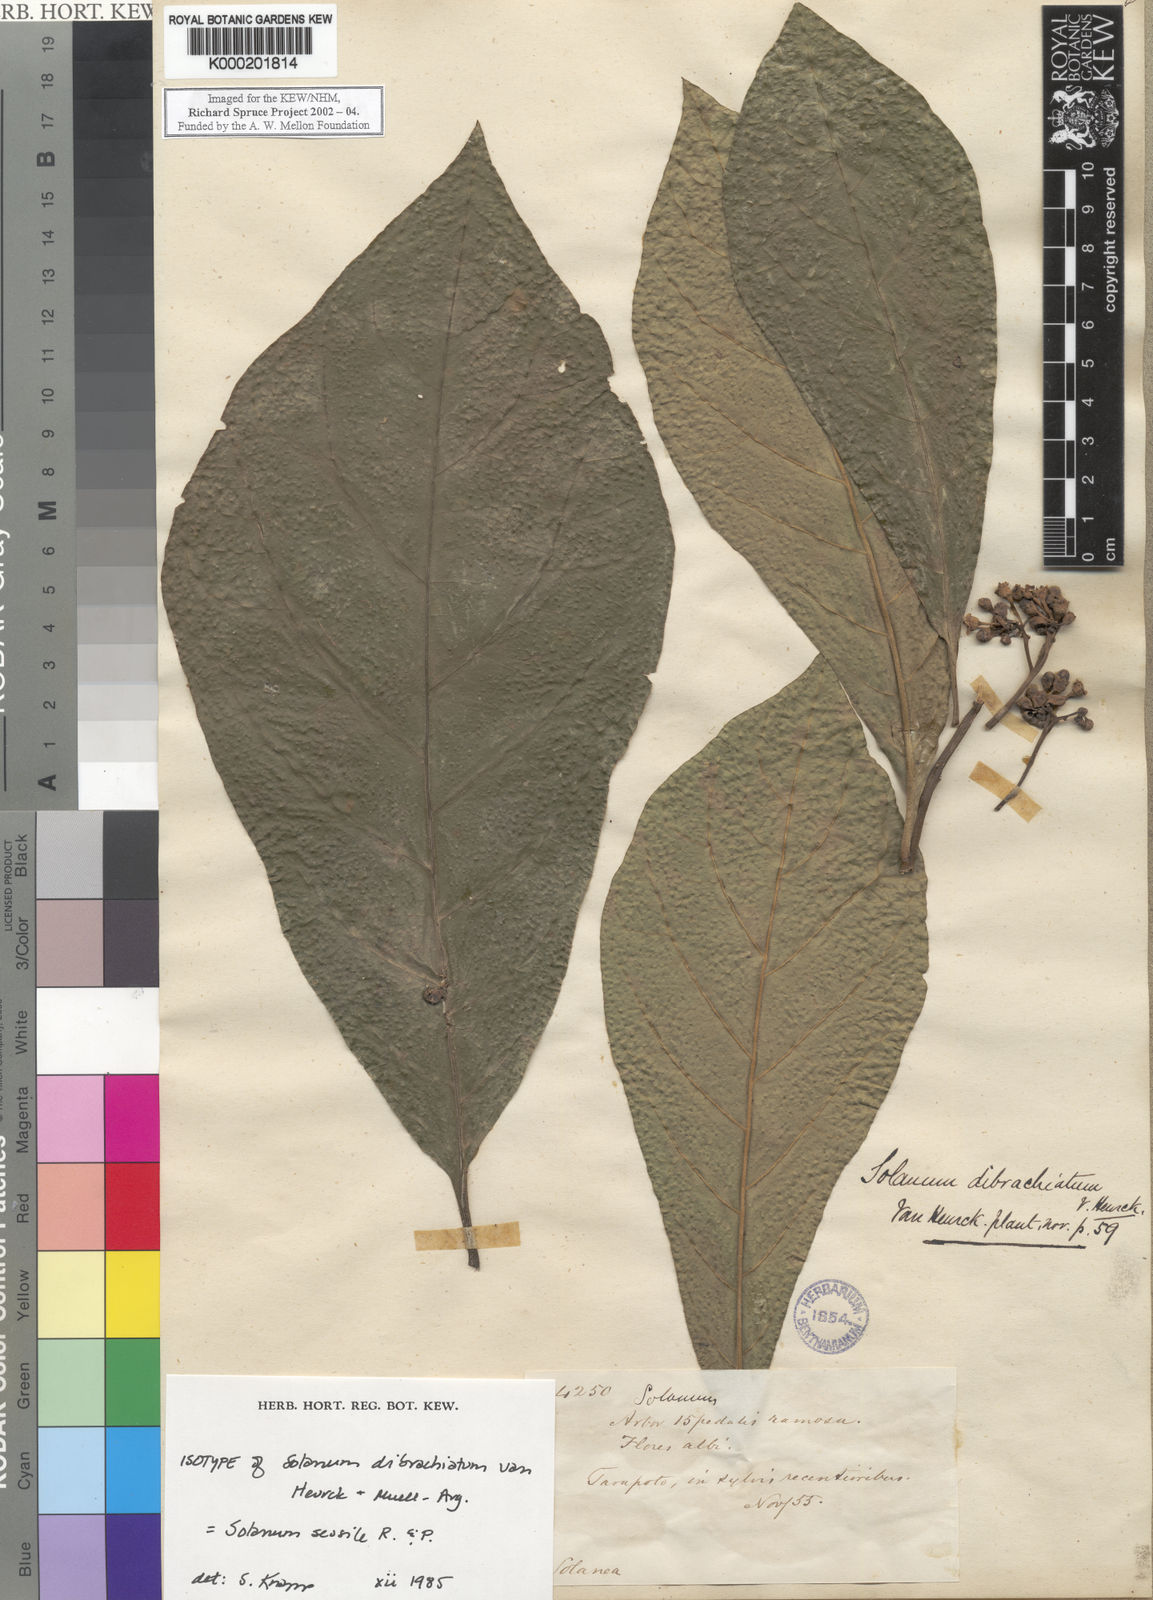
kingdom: Plantae
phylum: Tracheophyta
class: Magnoliopsida
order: Solanales
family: Solanaceae
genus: Solanum
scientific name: Solanum sessile
